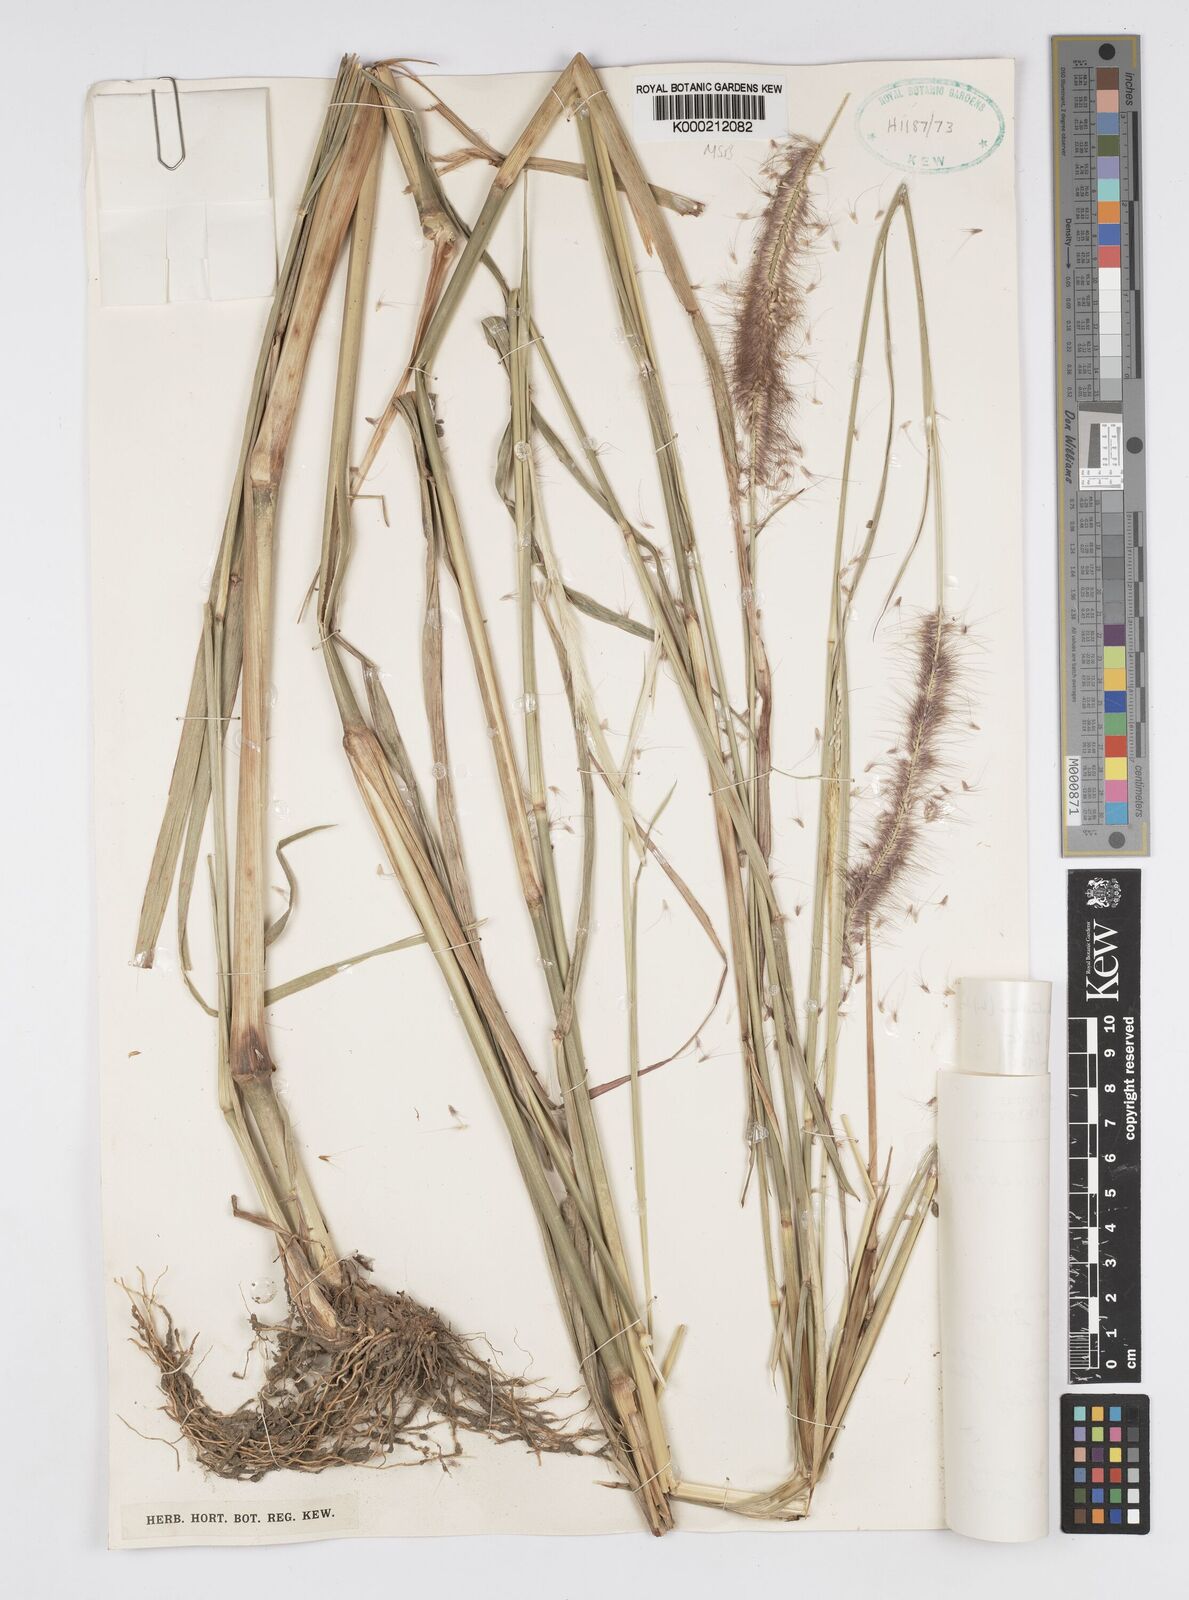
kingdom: Plantae
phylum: Tracheophyta
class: Liliopsida
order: Poales
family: Poaceae
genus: Setaria
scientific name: Setaria parviflora
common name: Knotroot bristle-grass
